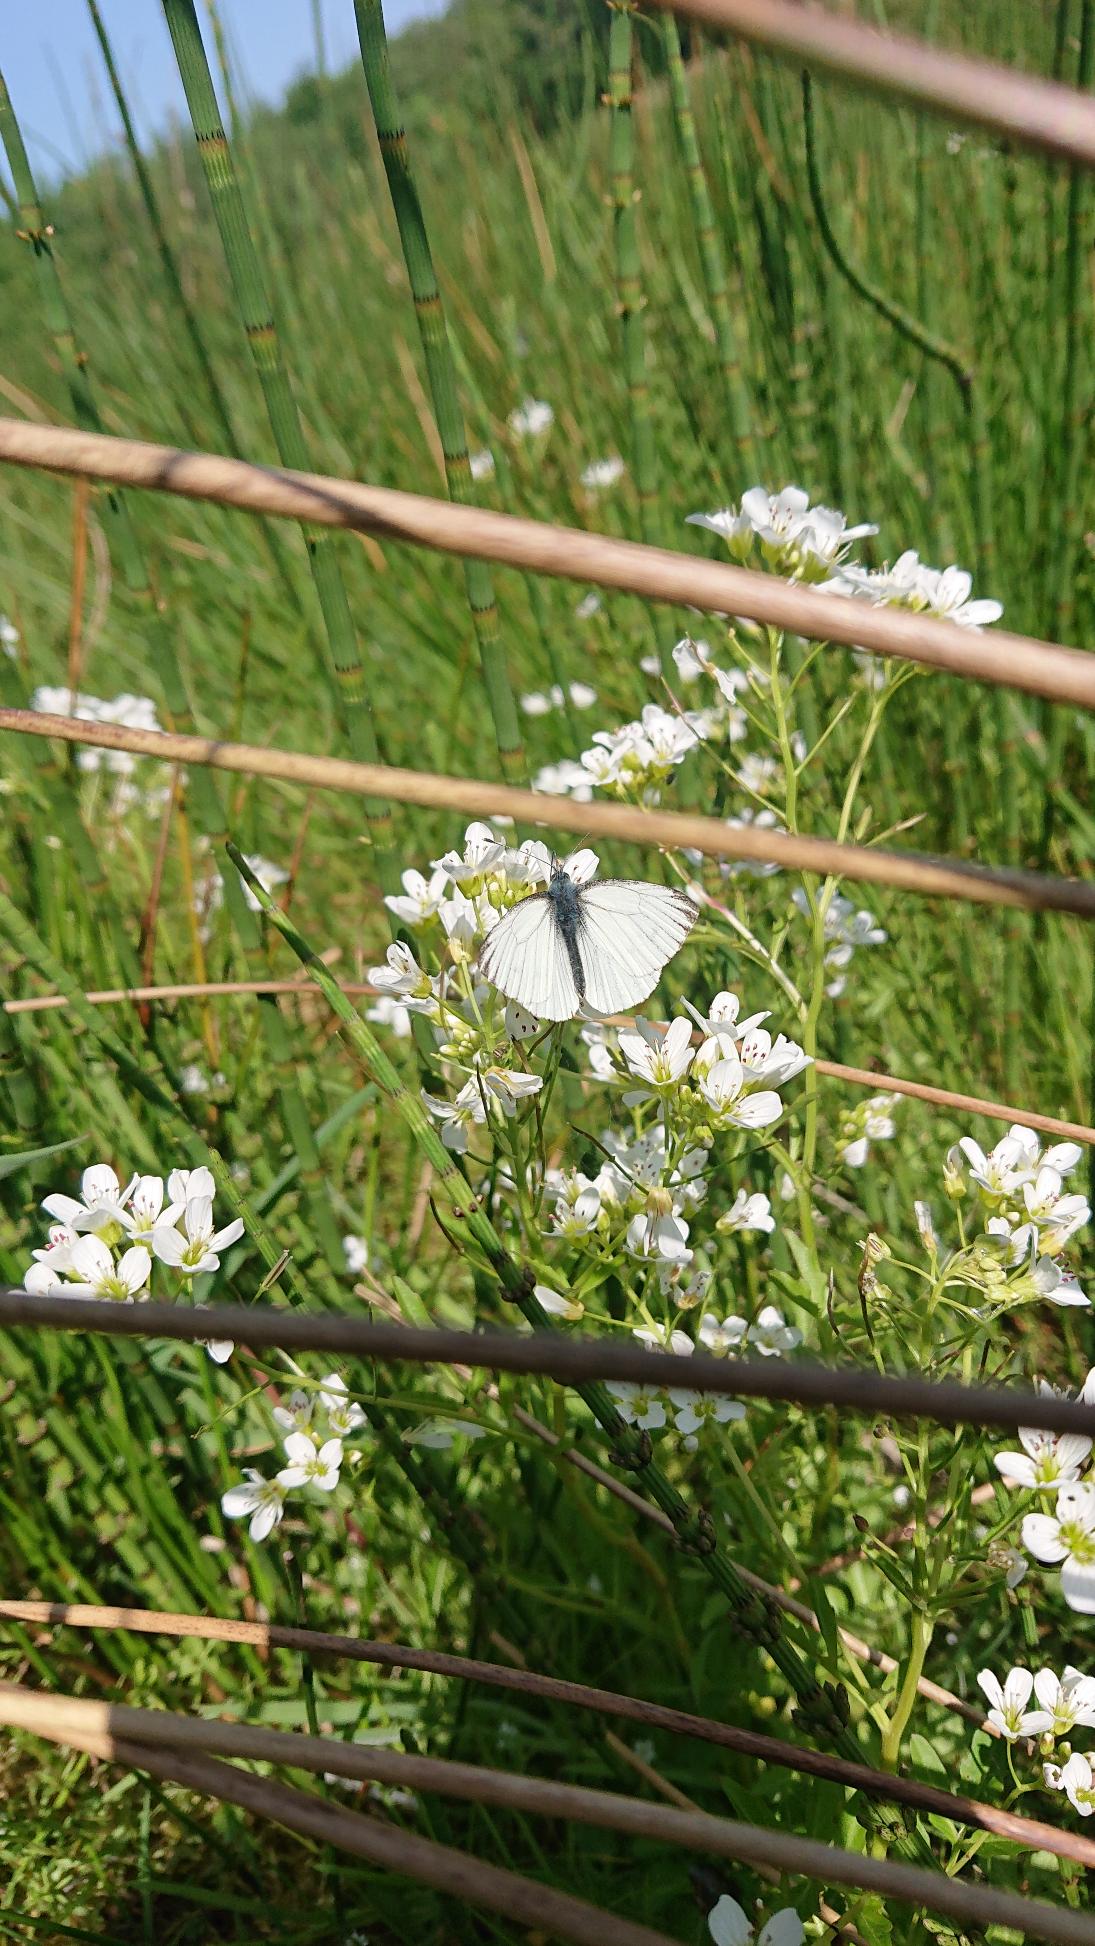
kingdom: Animalia
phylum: Arthropoda
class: Insecta
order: Lepidoptera
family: Pieridae
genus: Pieris
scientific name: Pieris napi
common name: Grønåret kålsommerfugl
